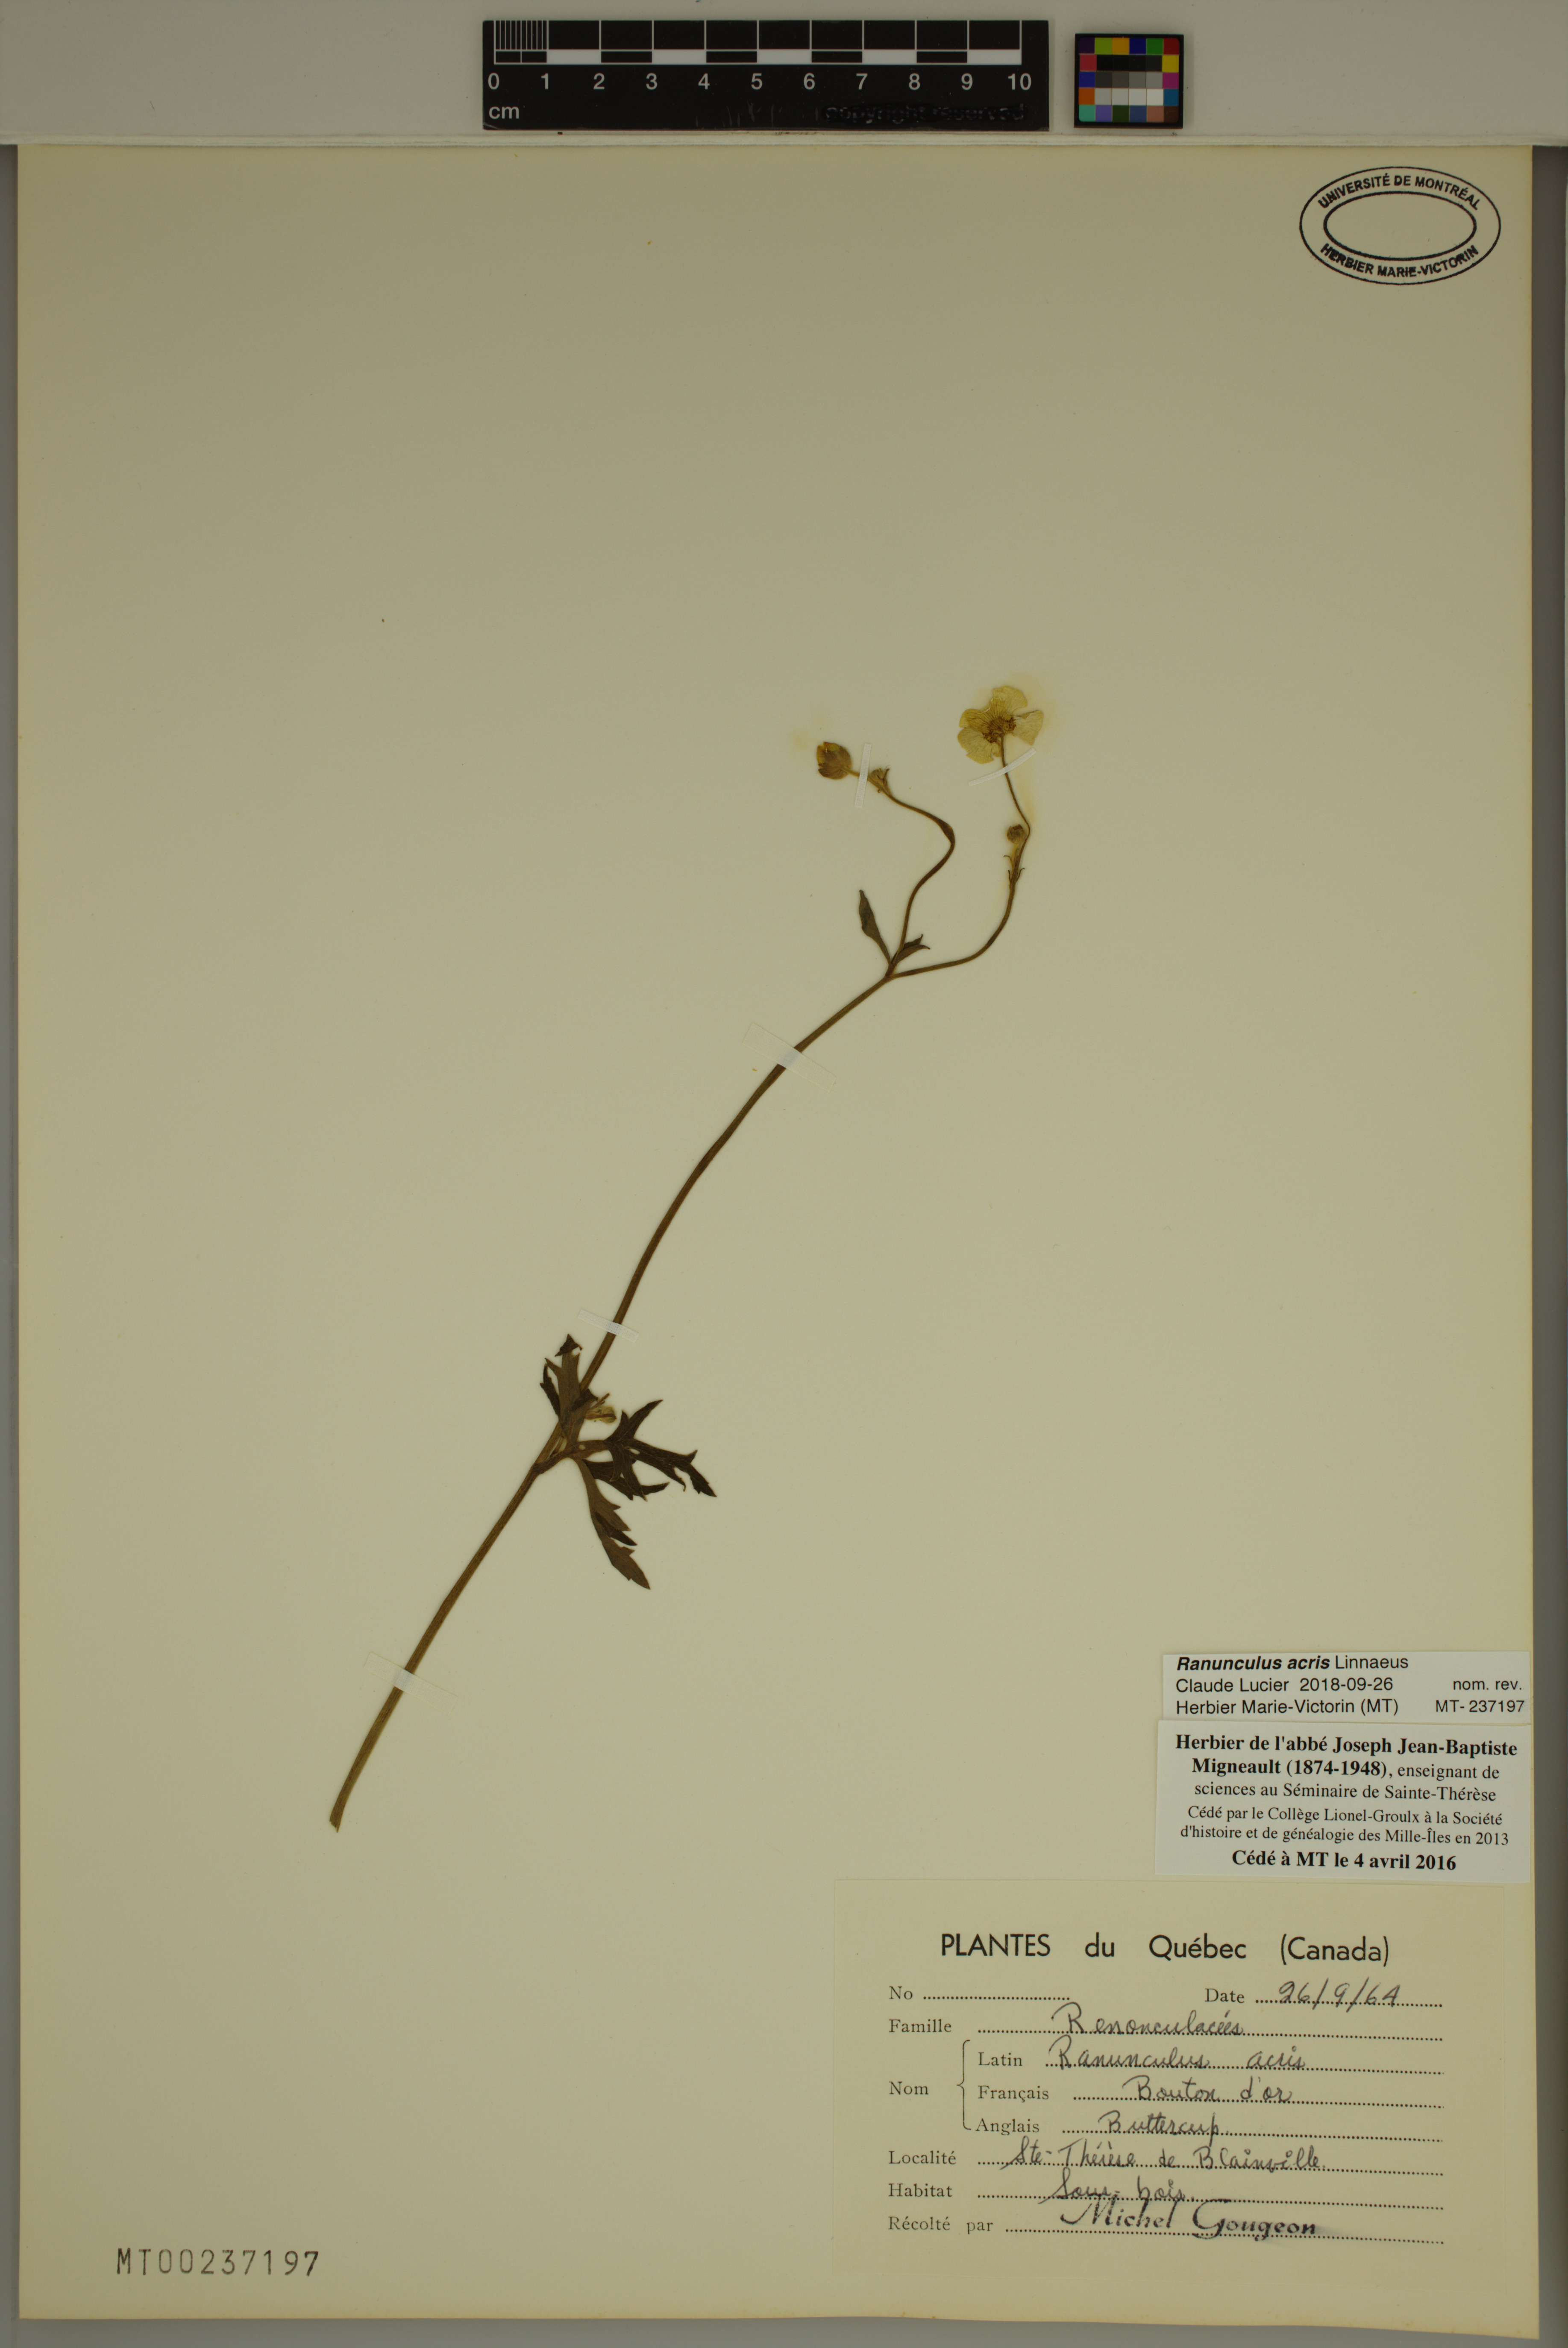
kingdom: Plantae
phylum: Tracheophyta
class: Magnoliopsida
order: Ranunculales
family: Ranunculaceae
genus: Ranunculus
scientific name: Ranunculus acris
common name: Meadow buttercup
